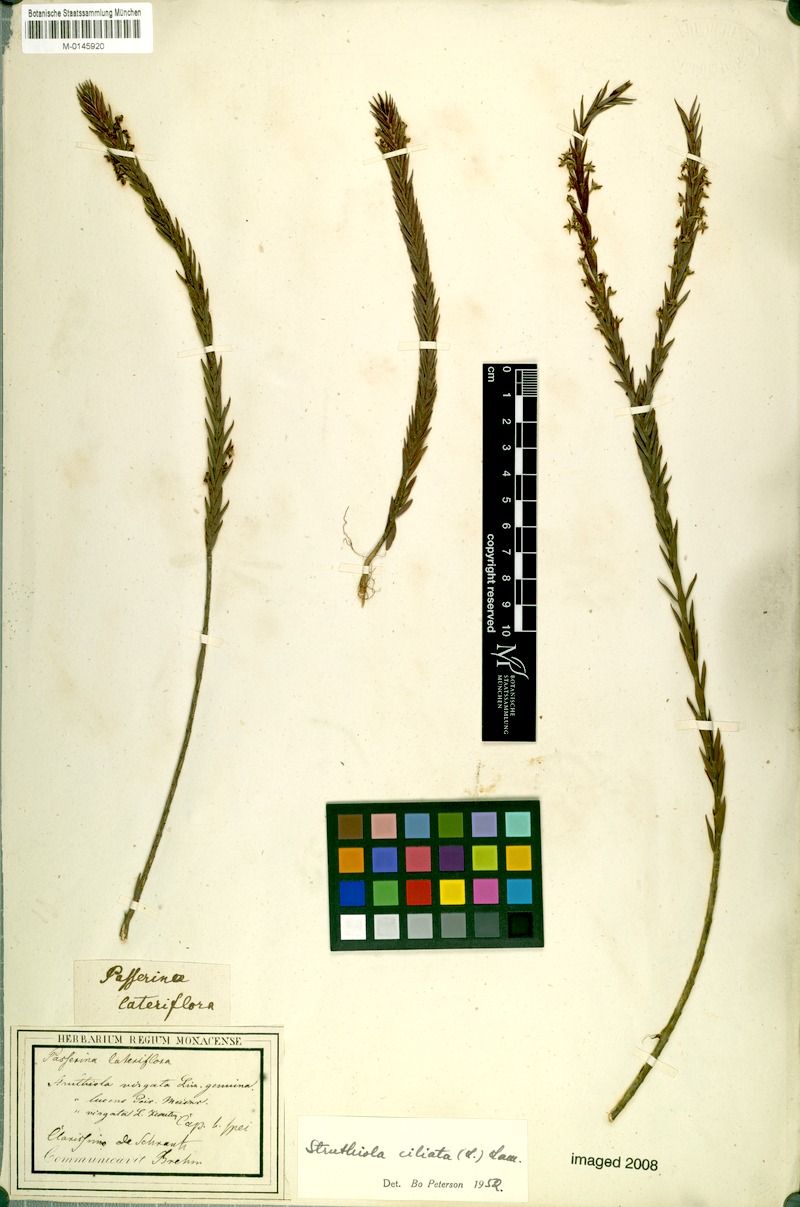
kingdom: Plantae
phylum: Tracheophyta
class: Magnoliopsida
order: Malvales
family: Thymelaeaceae
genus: Struthiola
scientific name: Struthiola ciliata
